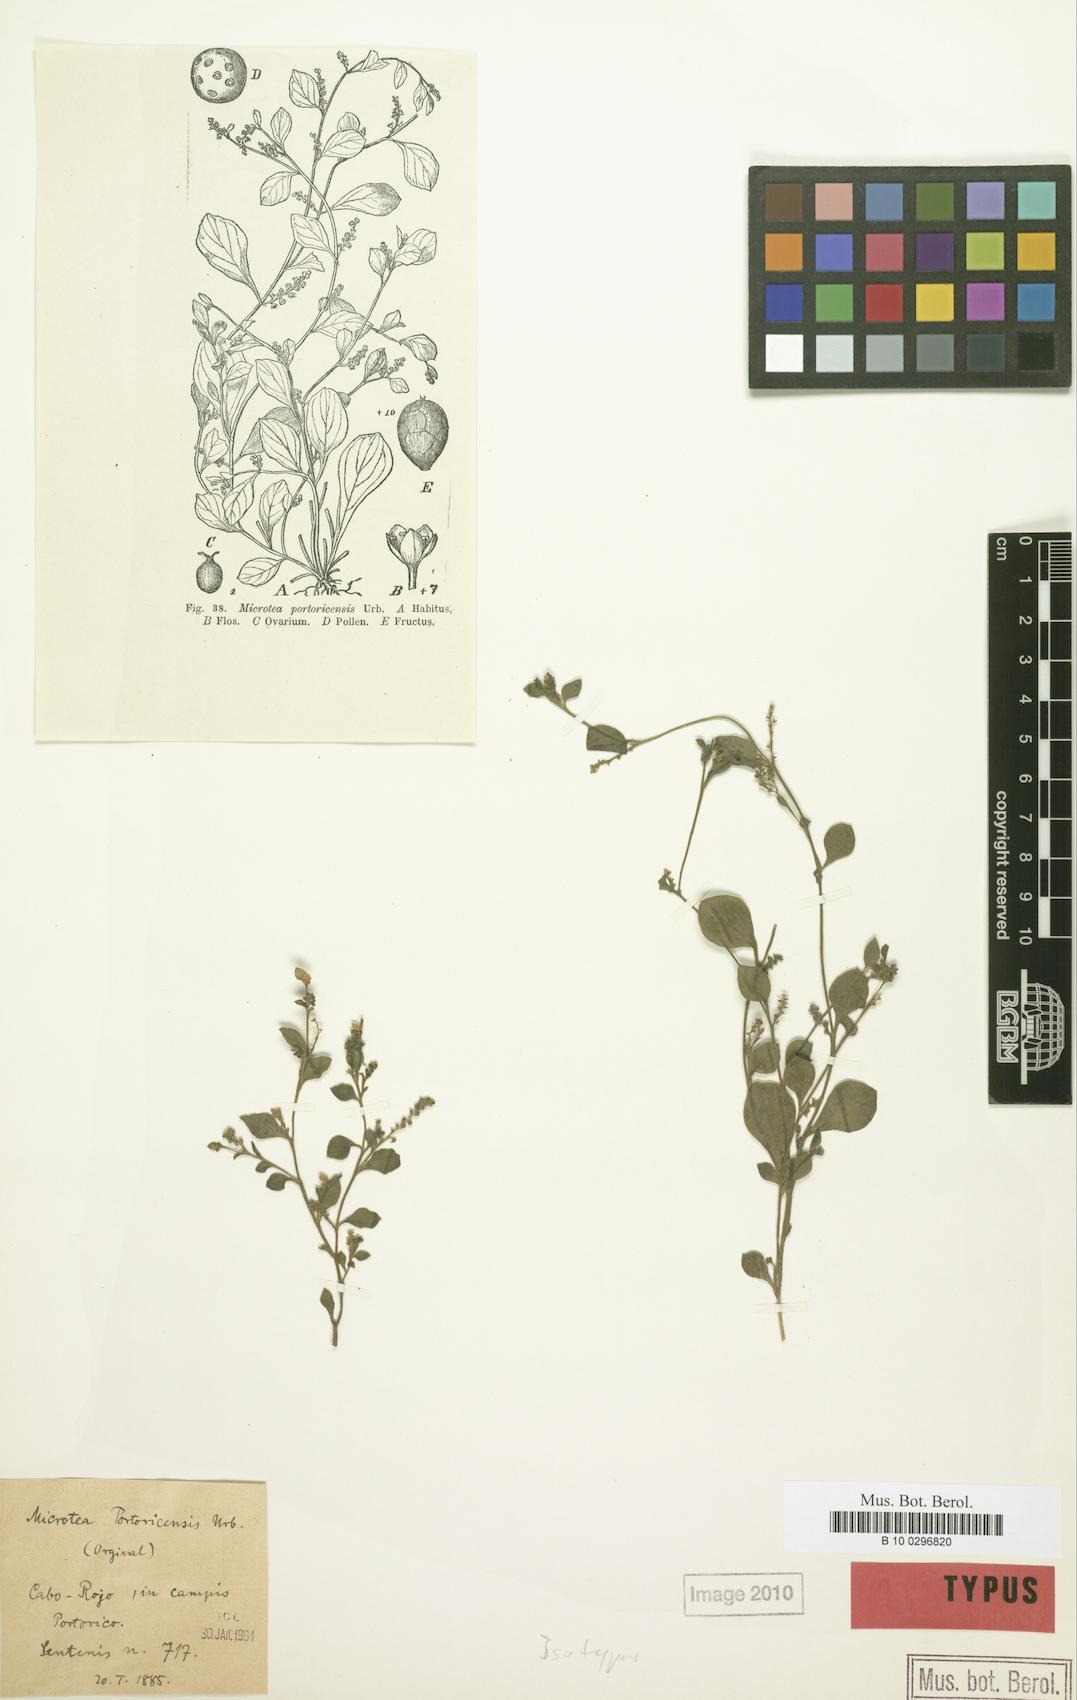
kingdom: Plantae
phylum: Tracheophyta
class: Magnoliopsida
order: Caryophyllales
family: Microteaceae
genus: Microtea
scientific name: Microtea portoricensis
